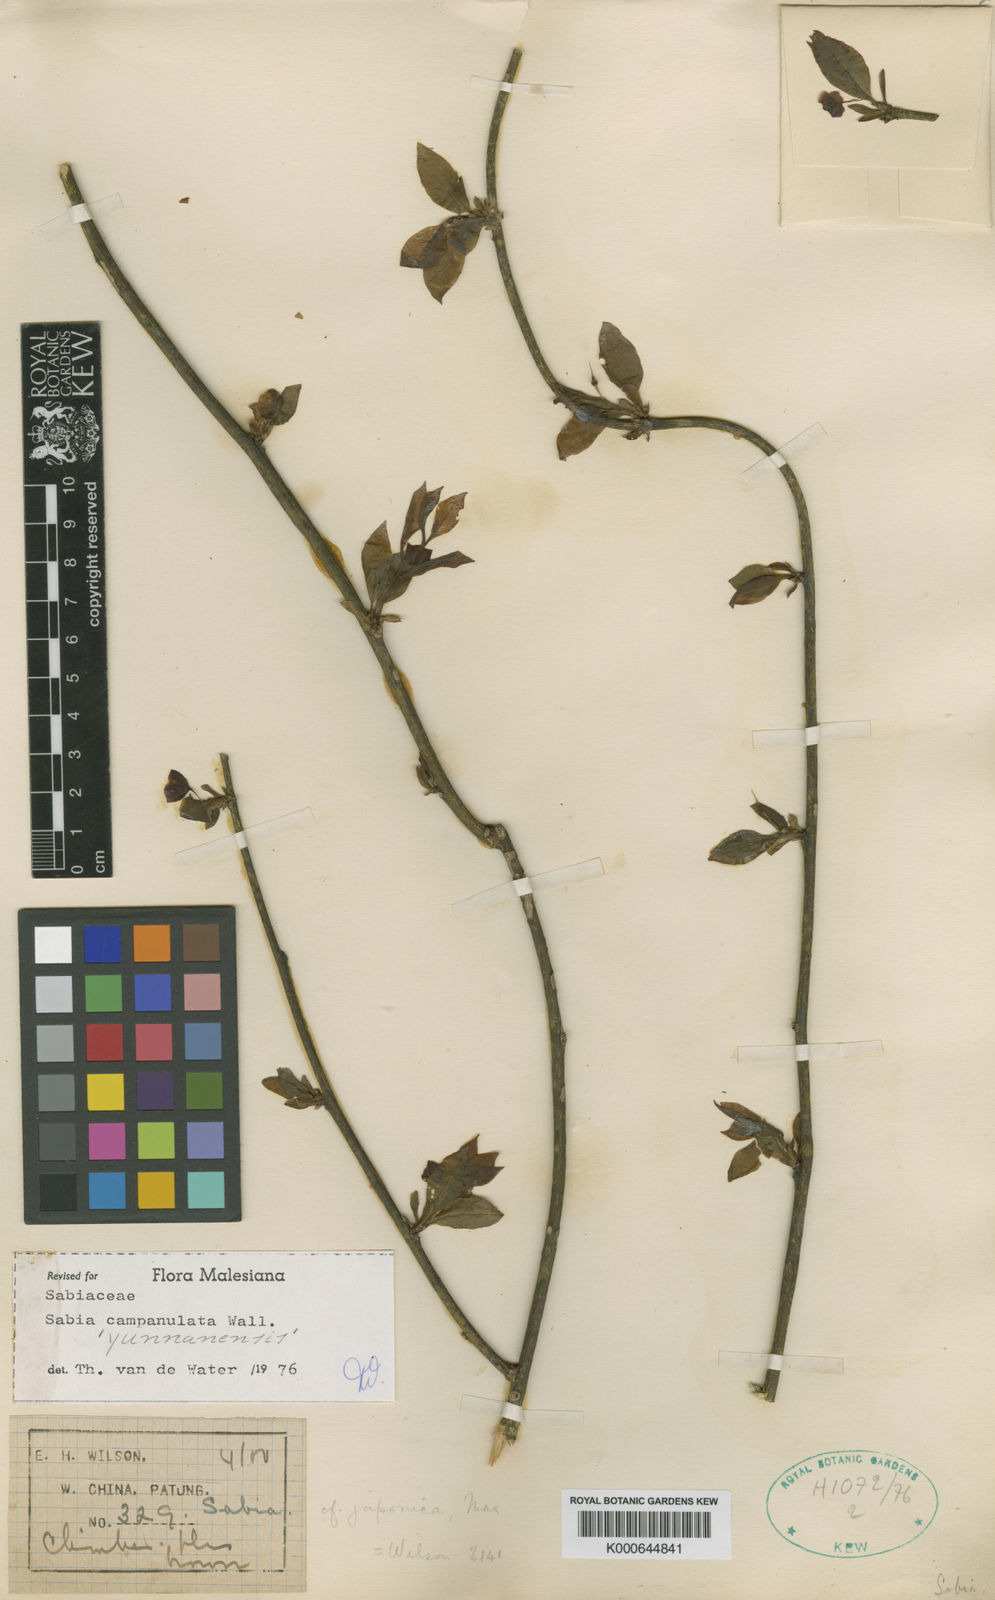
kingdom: Plantae
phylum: Tracheophyta
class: Magnoliopsida
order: Proteales
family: Sabiaceae
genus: Sabia
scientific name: Sabia campanulata
